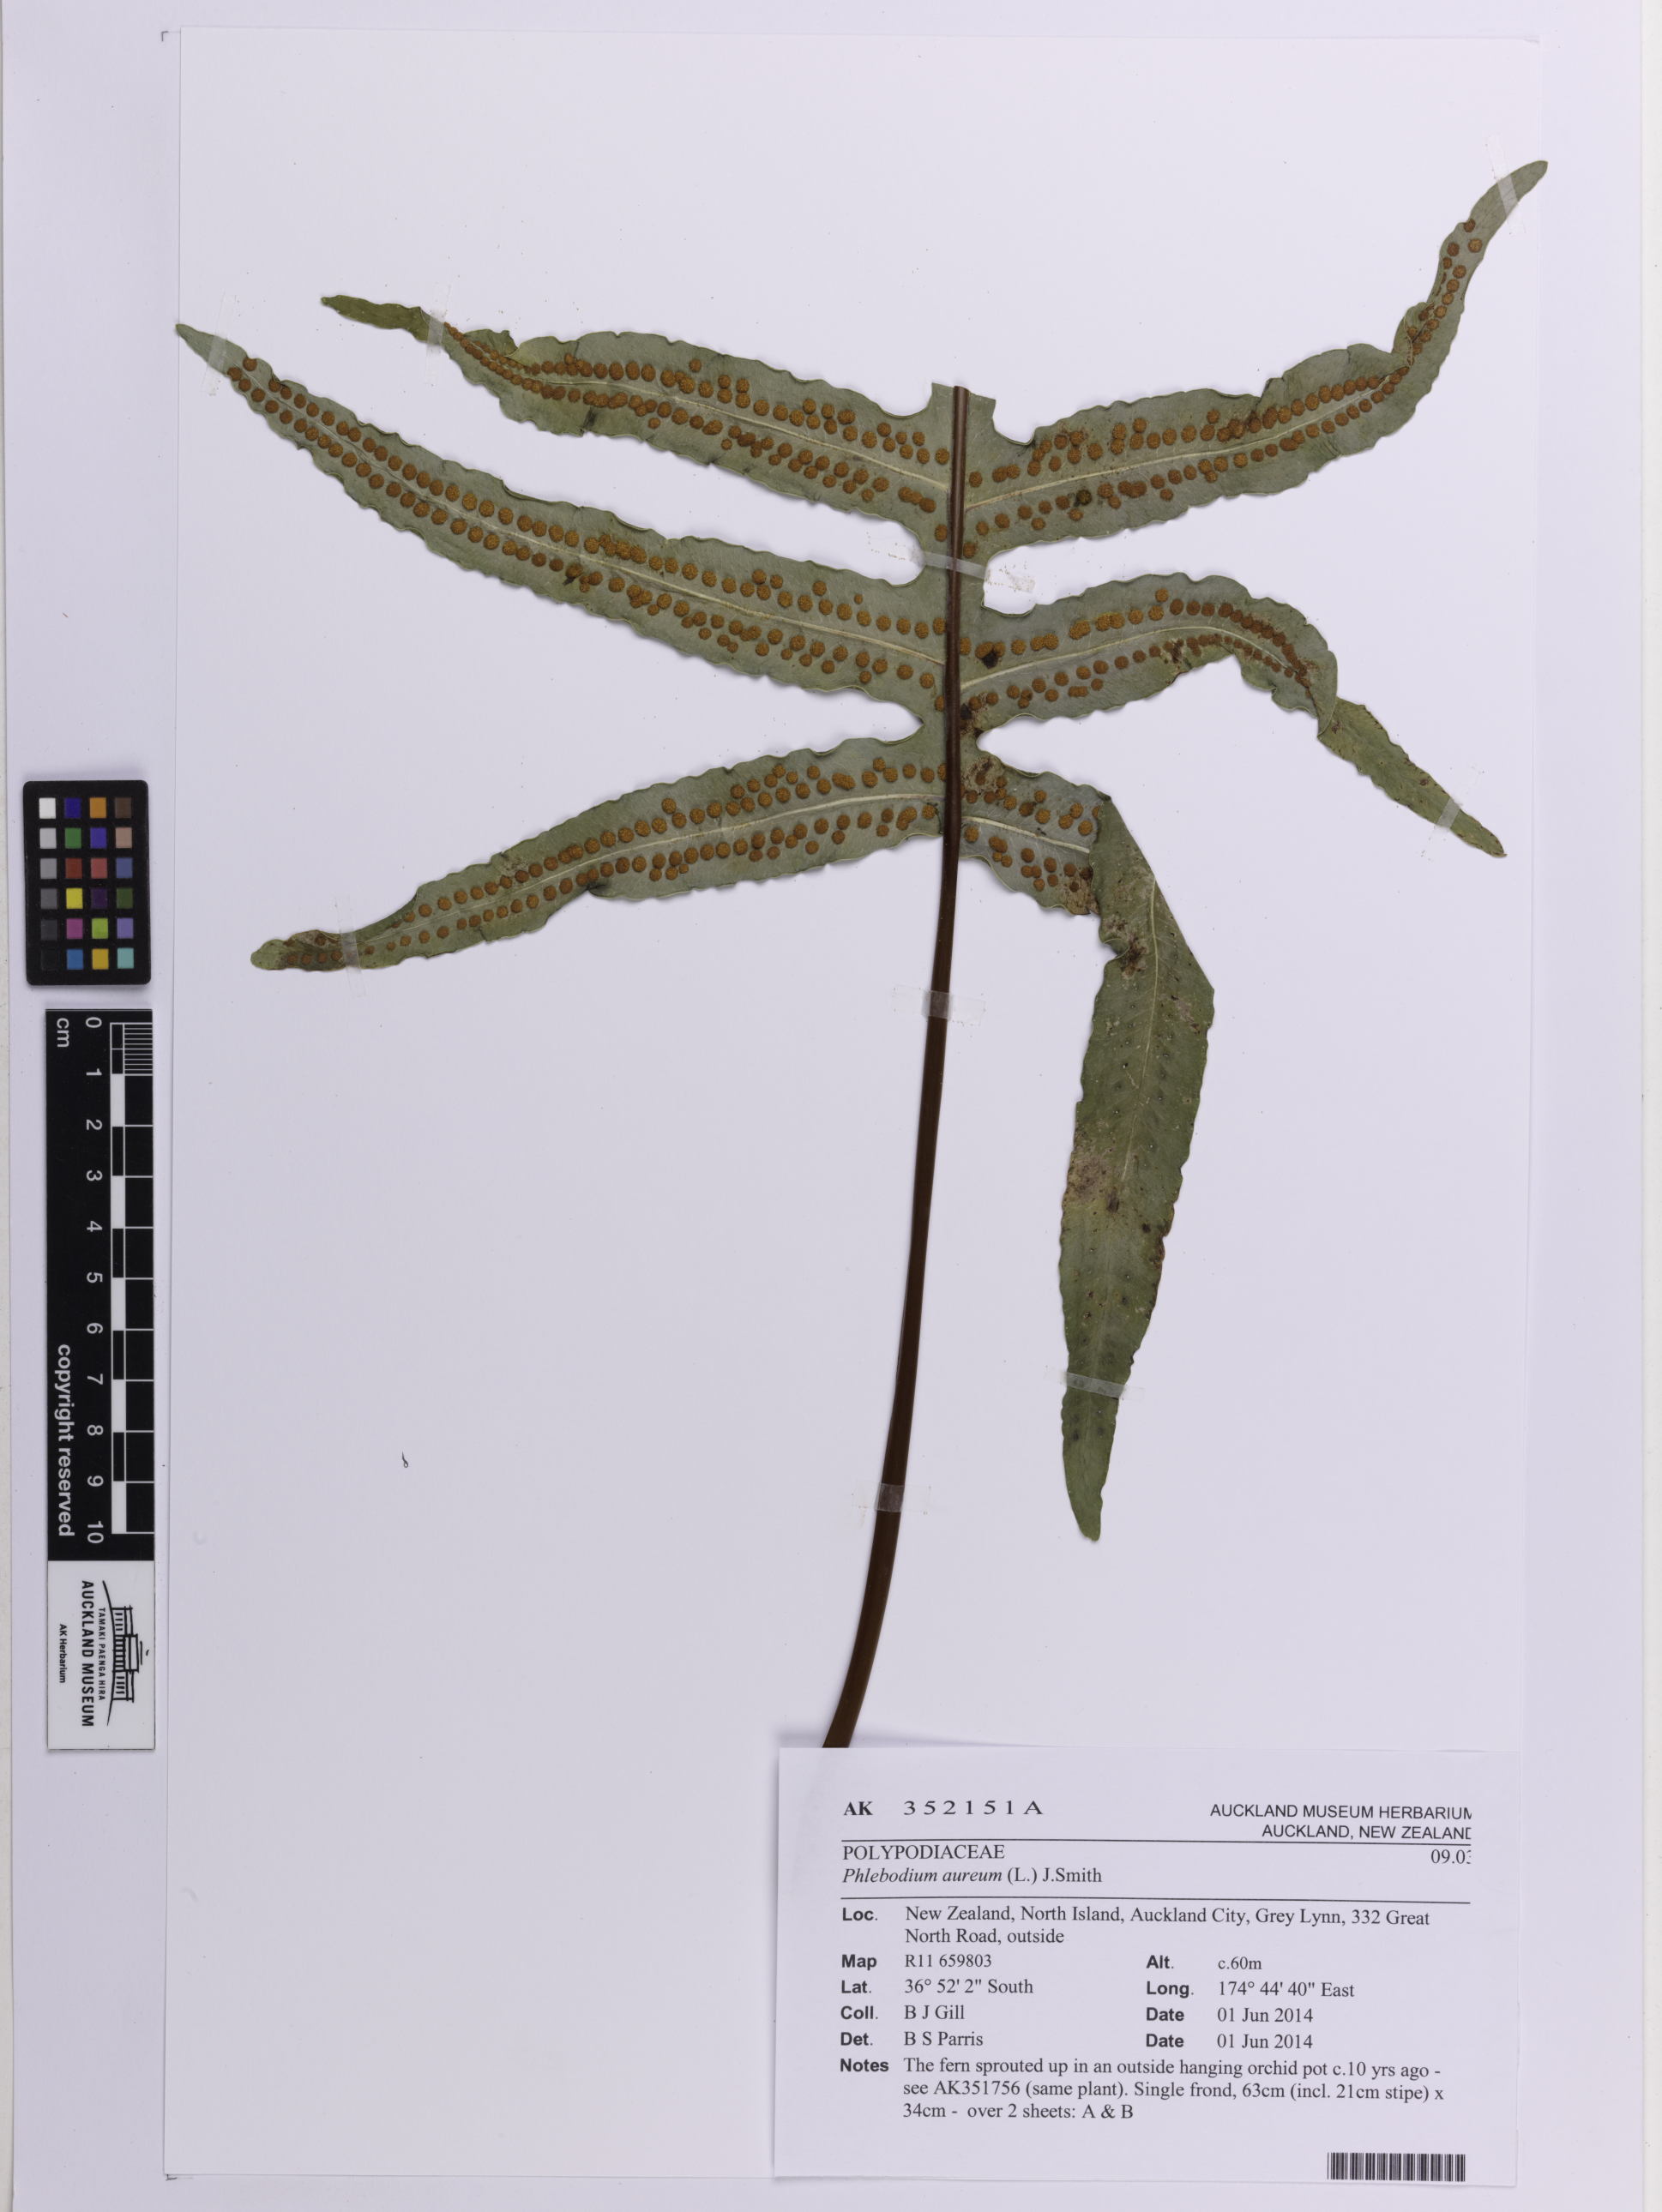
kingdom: Plantae
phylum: Tracheophyta
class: Polypodiopsida
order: Polypodiales
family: Polypodiaceae
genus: Phlebodium
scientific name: Phlebodium aureum
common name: Gold-foot fern
